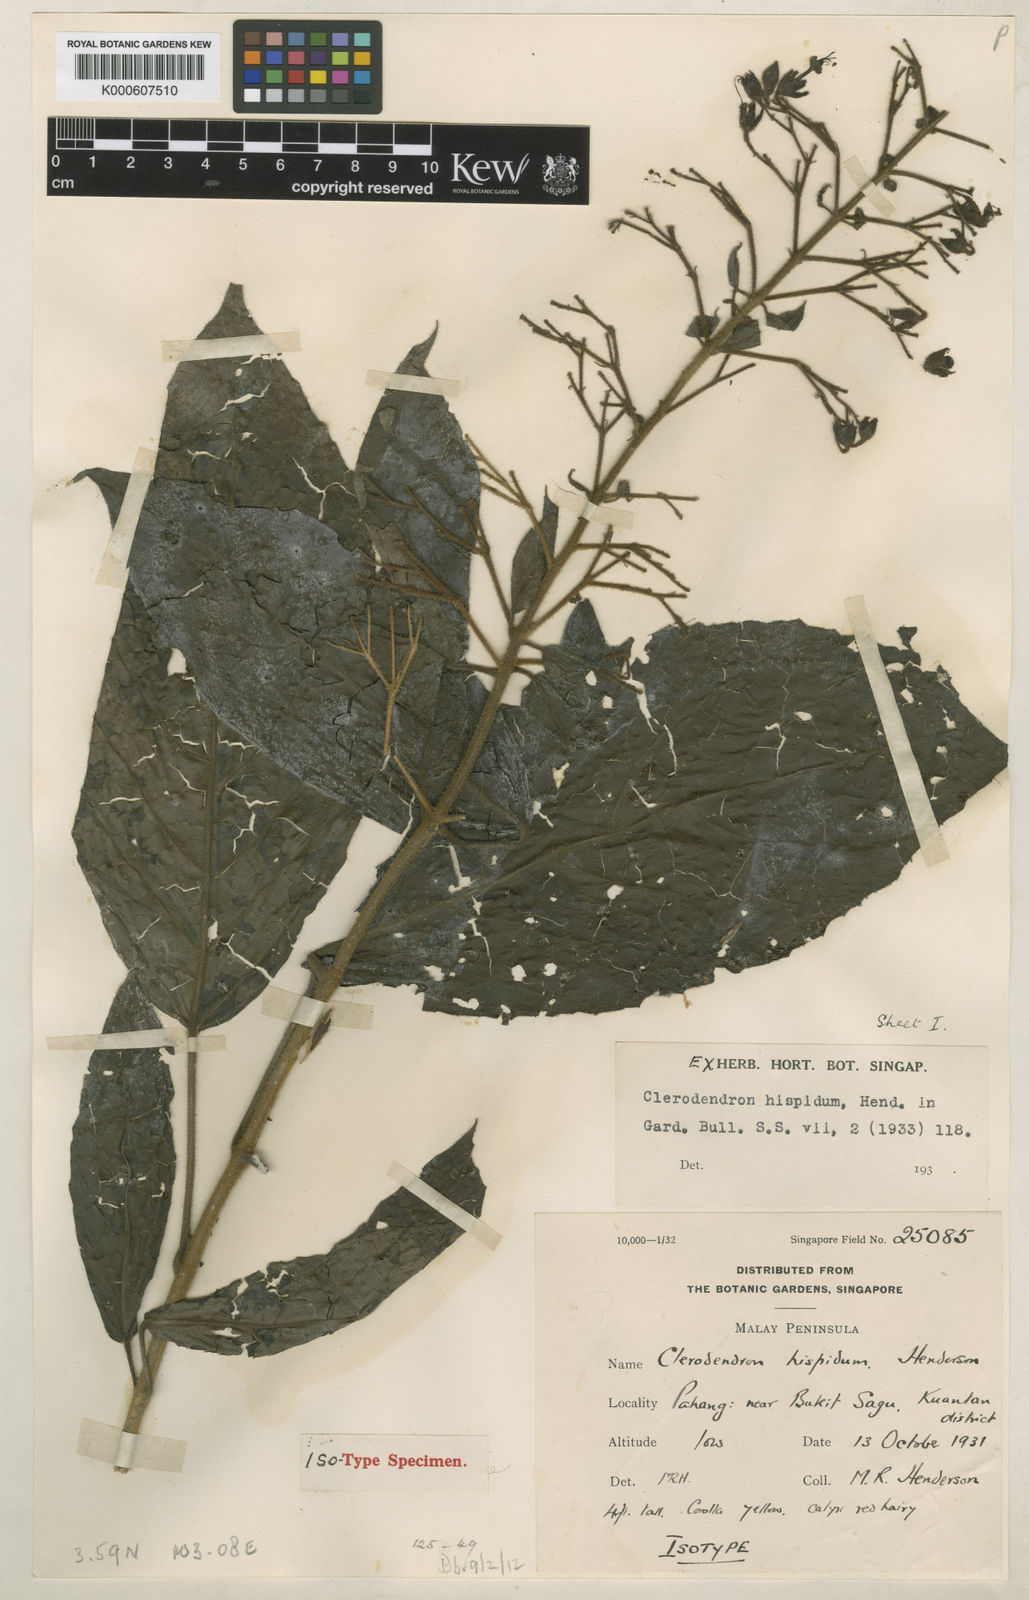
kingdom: Plantae
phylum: Tracheophyta
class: Magnoliopsida
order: Lamiales
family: Lamiaceae
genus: Clerodendrum
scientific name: Clerodendrum haematolasium
